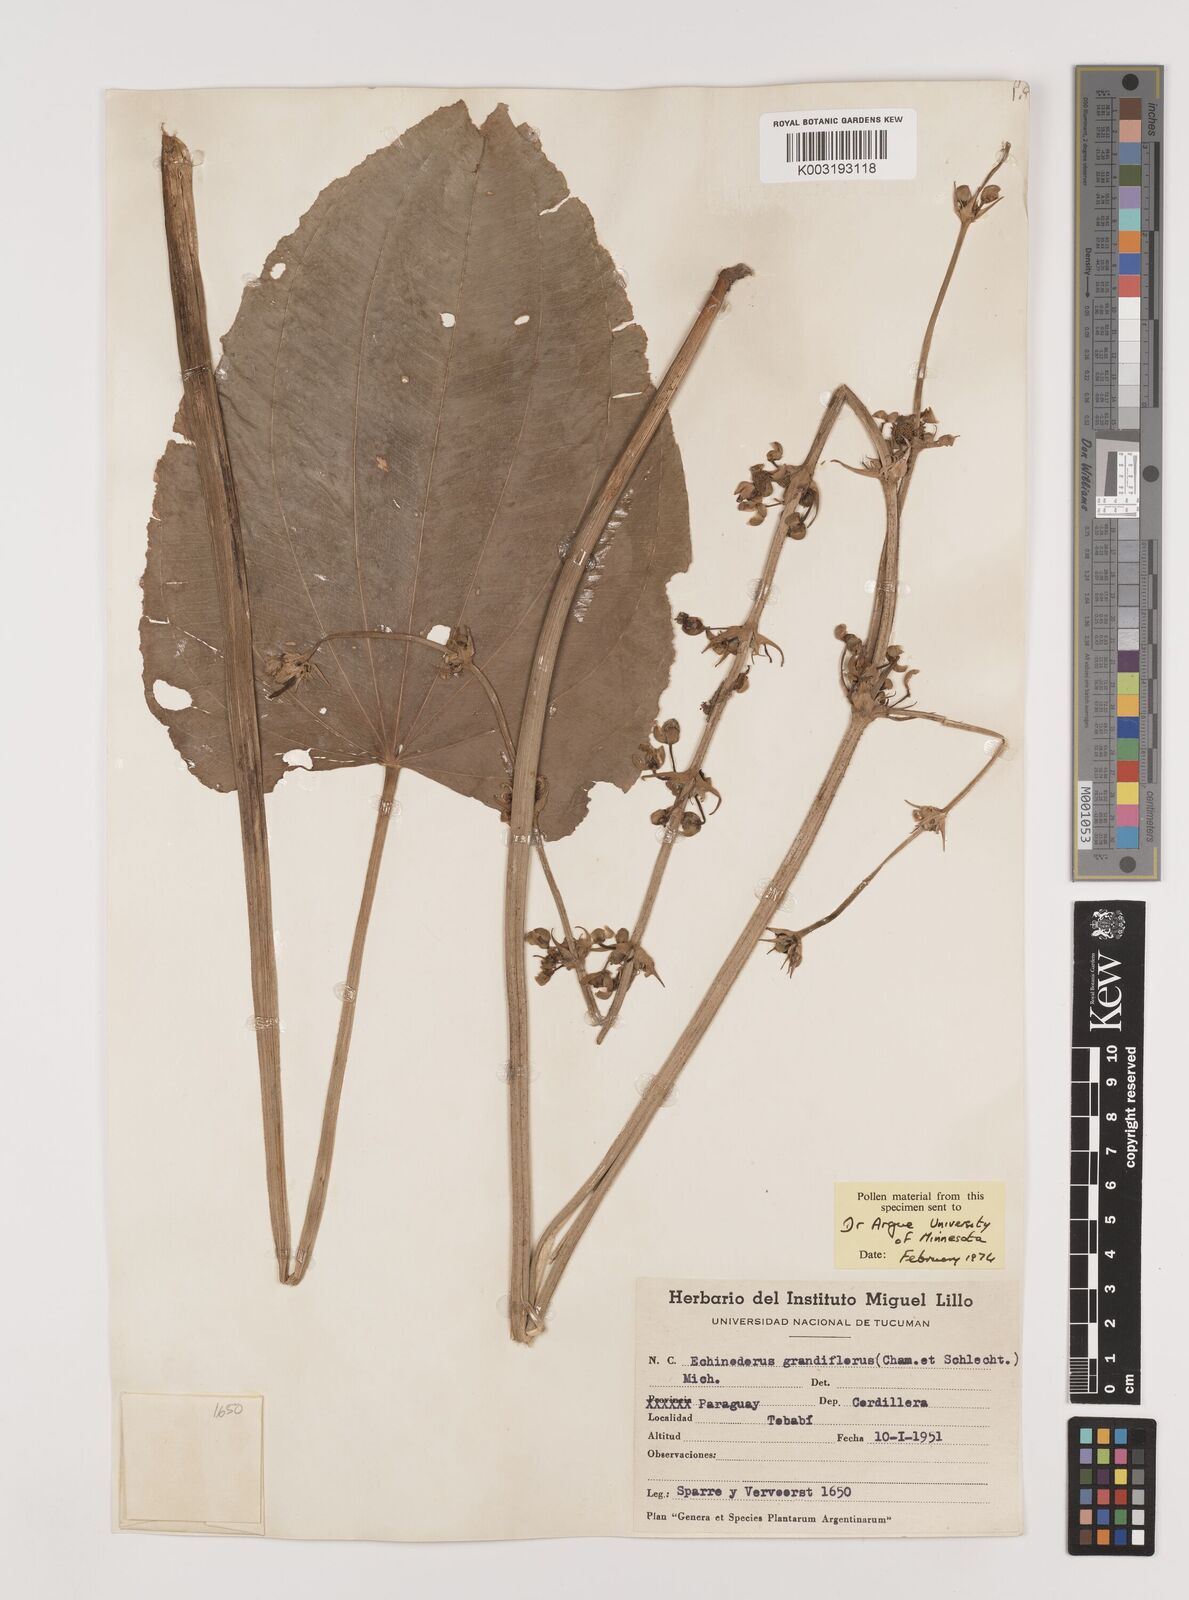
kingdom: Plantae
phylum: Tracheophyta
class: Liliopsida
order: Alismatales
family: Alismataceae
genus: Aquarius
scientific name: Aquarius grandiflorus
